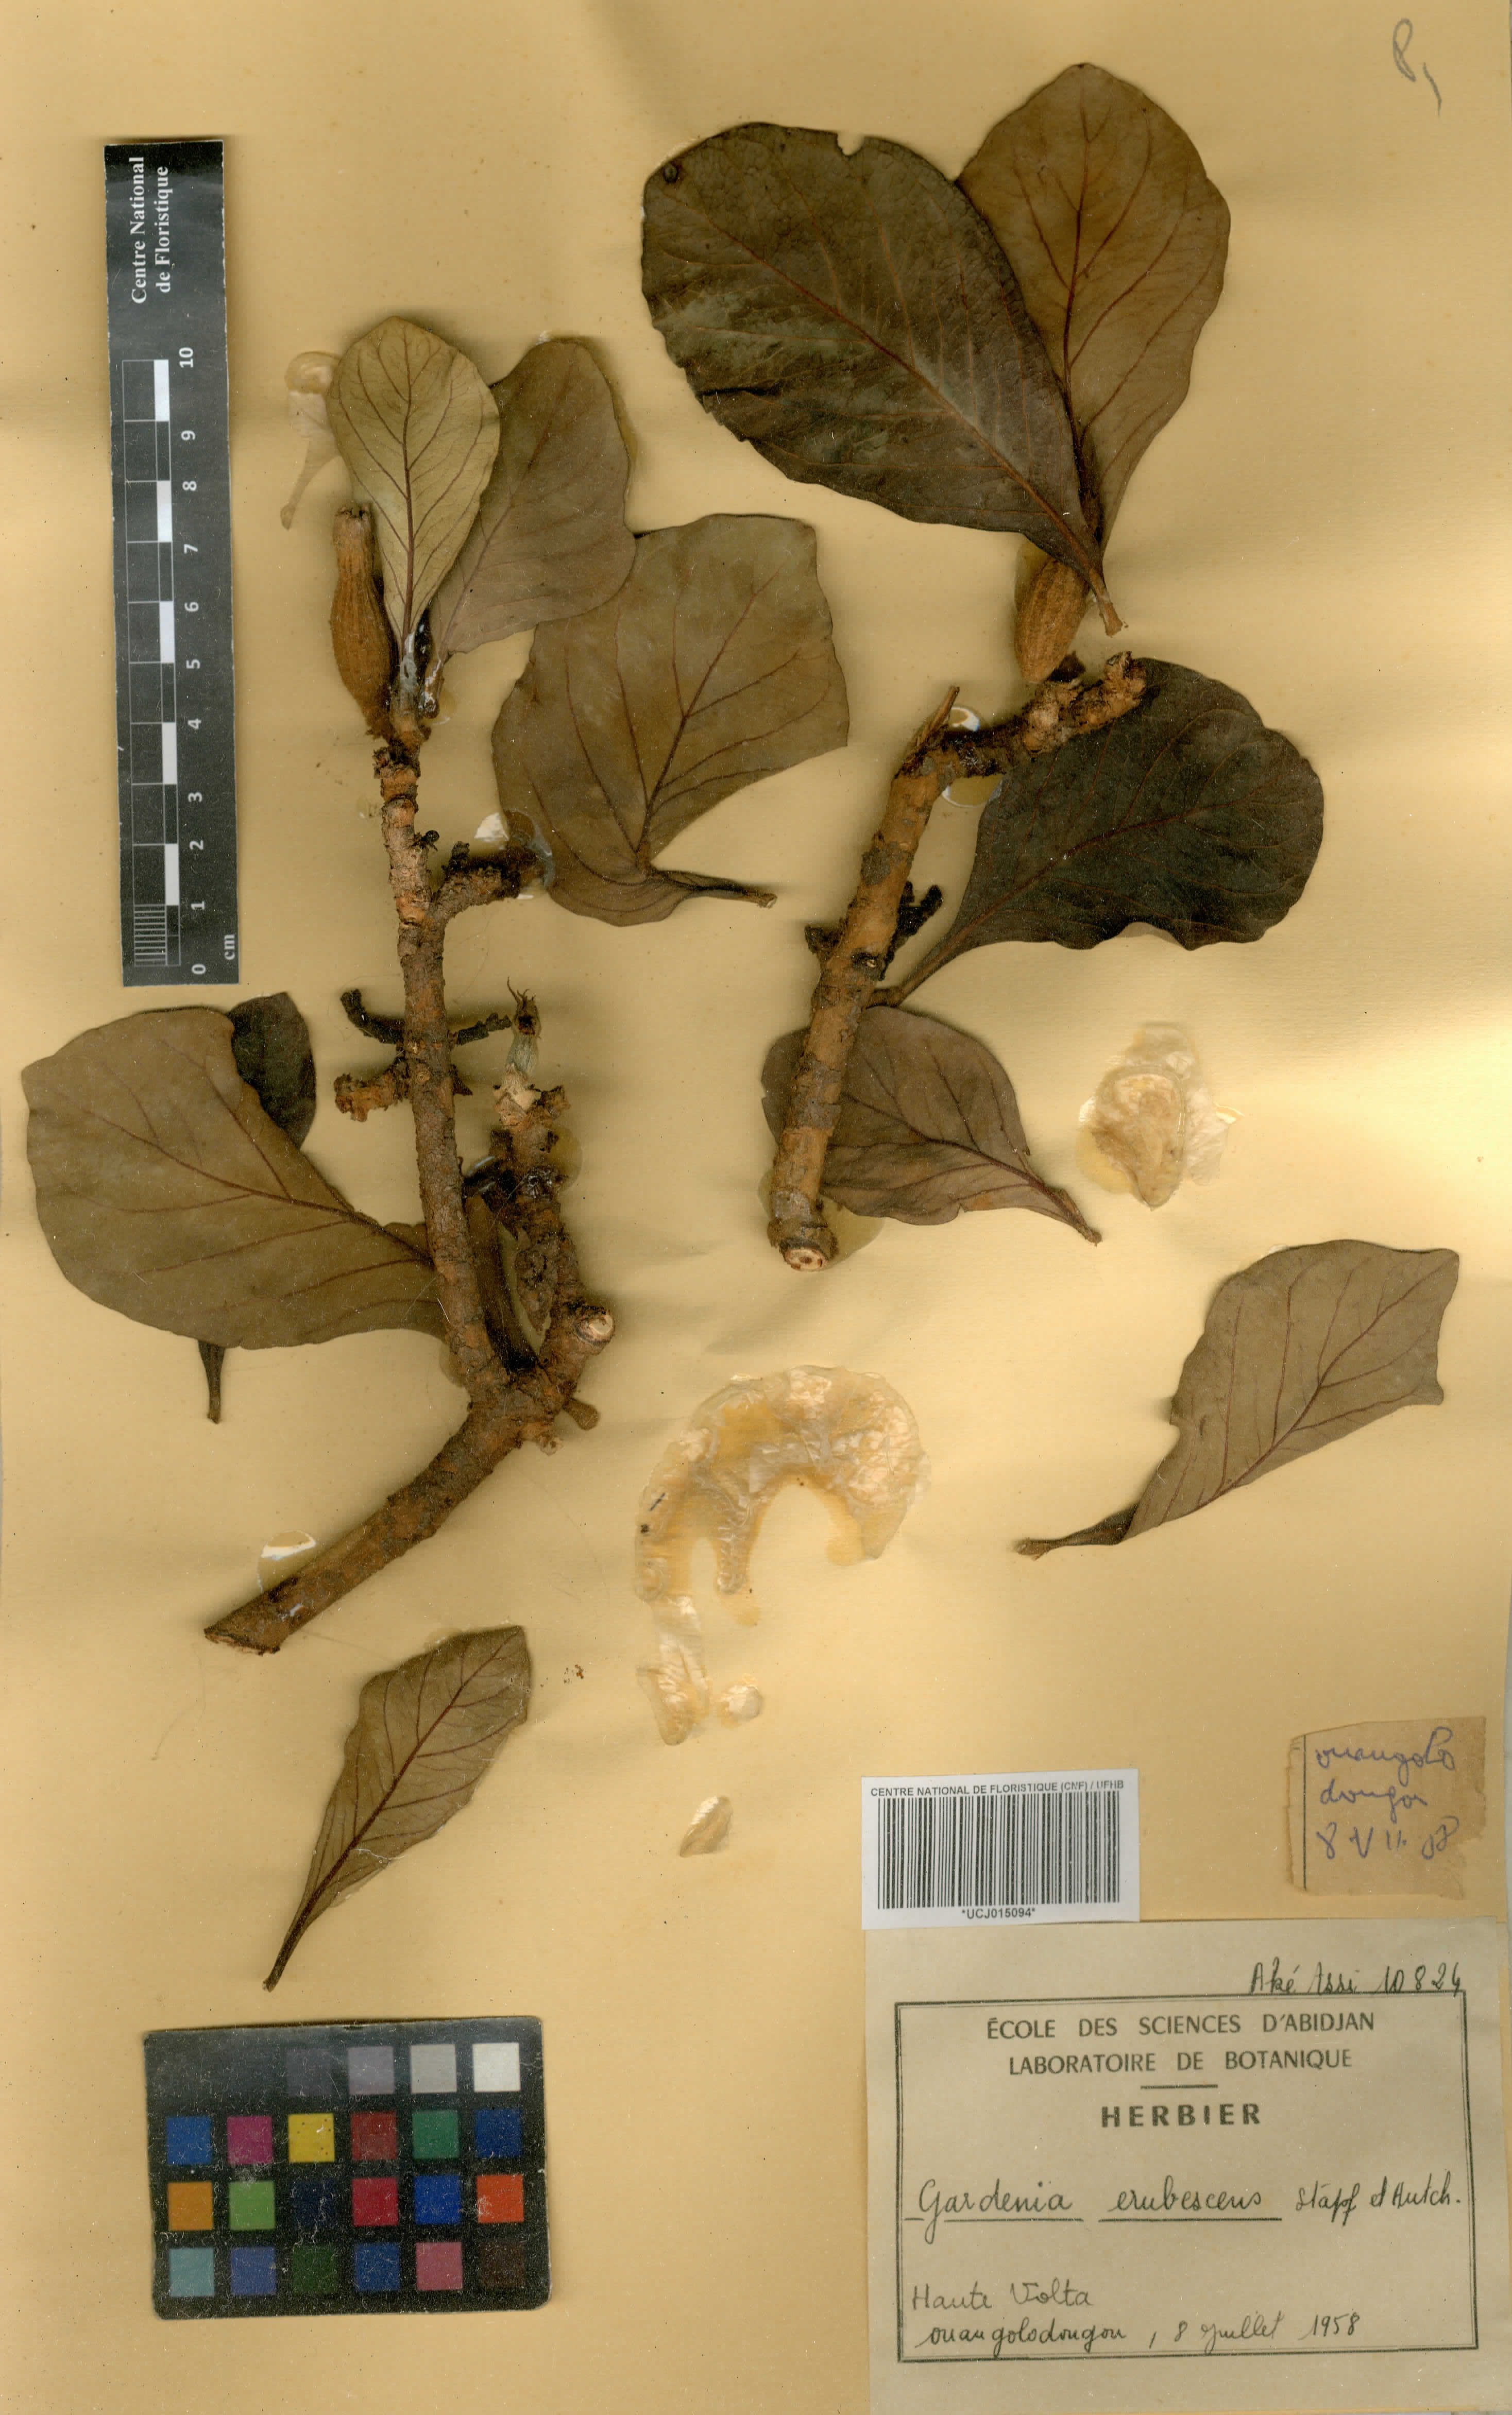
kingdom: Plantae
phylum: Tracheophyta
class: Magnoliopsida
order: Gentianales
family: Rubiaceae
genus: Gardenia
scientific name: Gardenia erubescens
